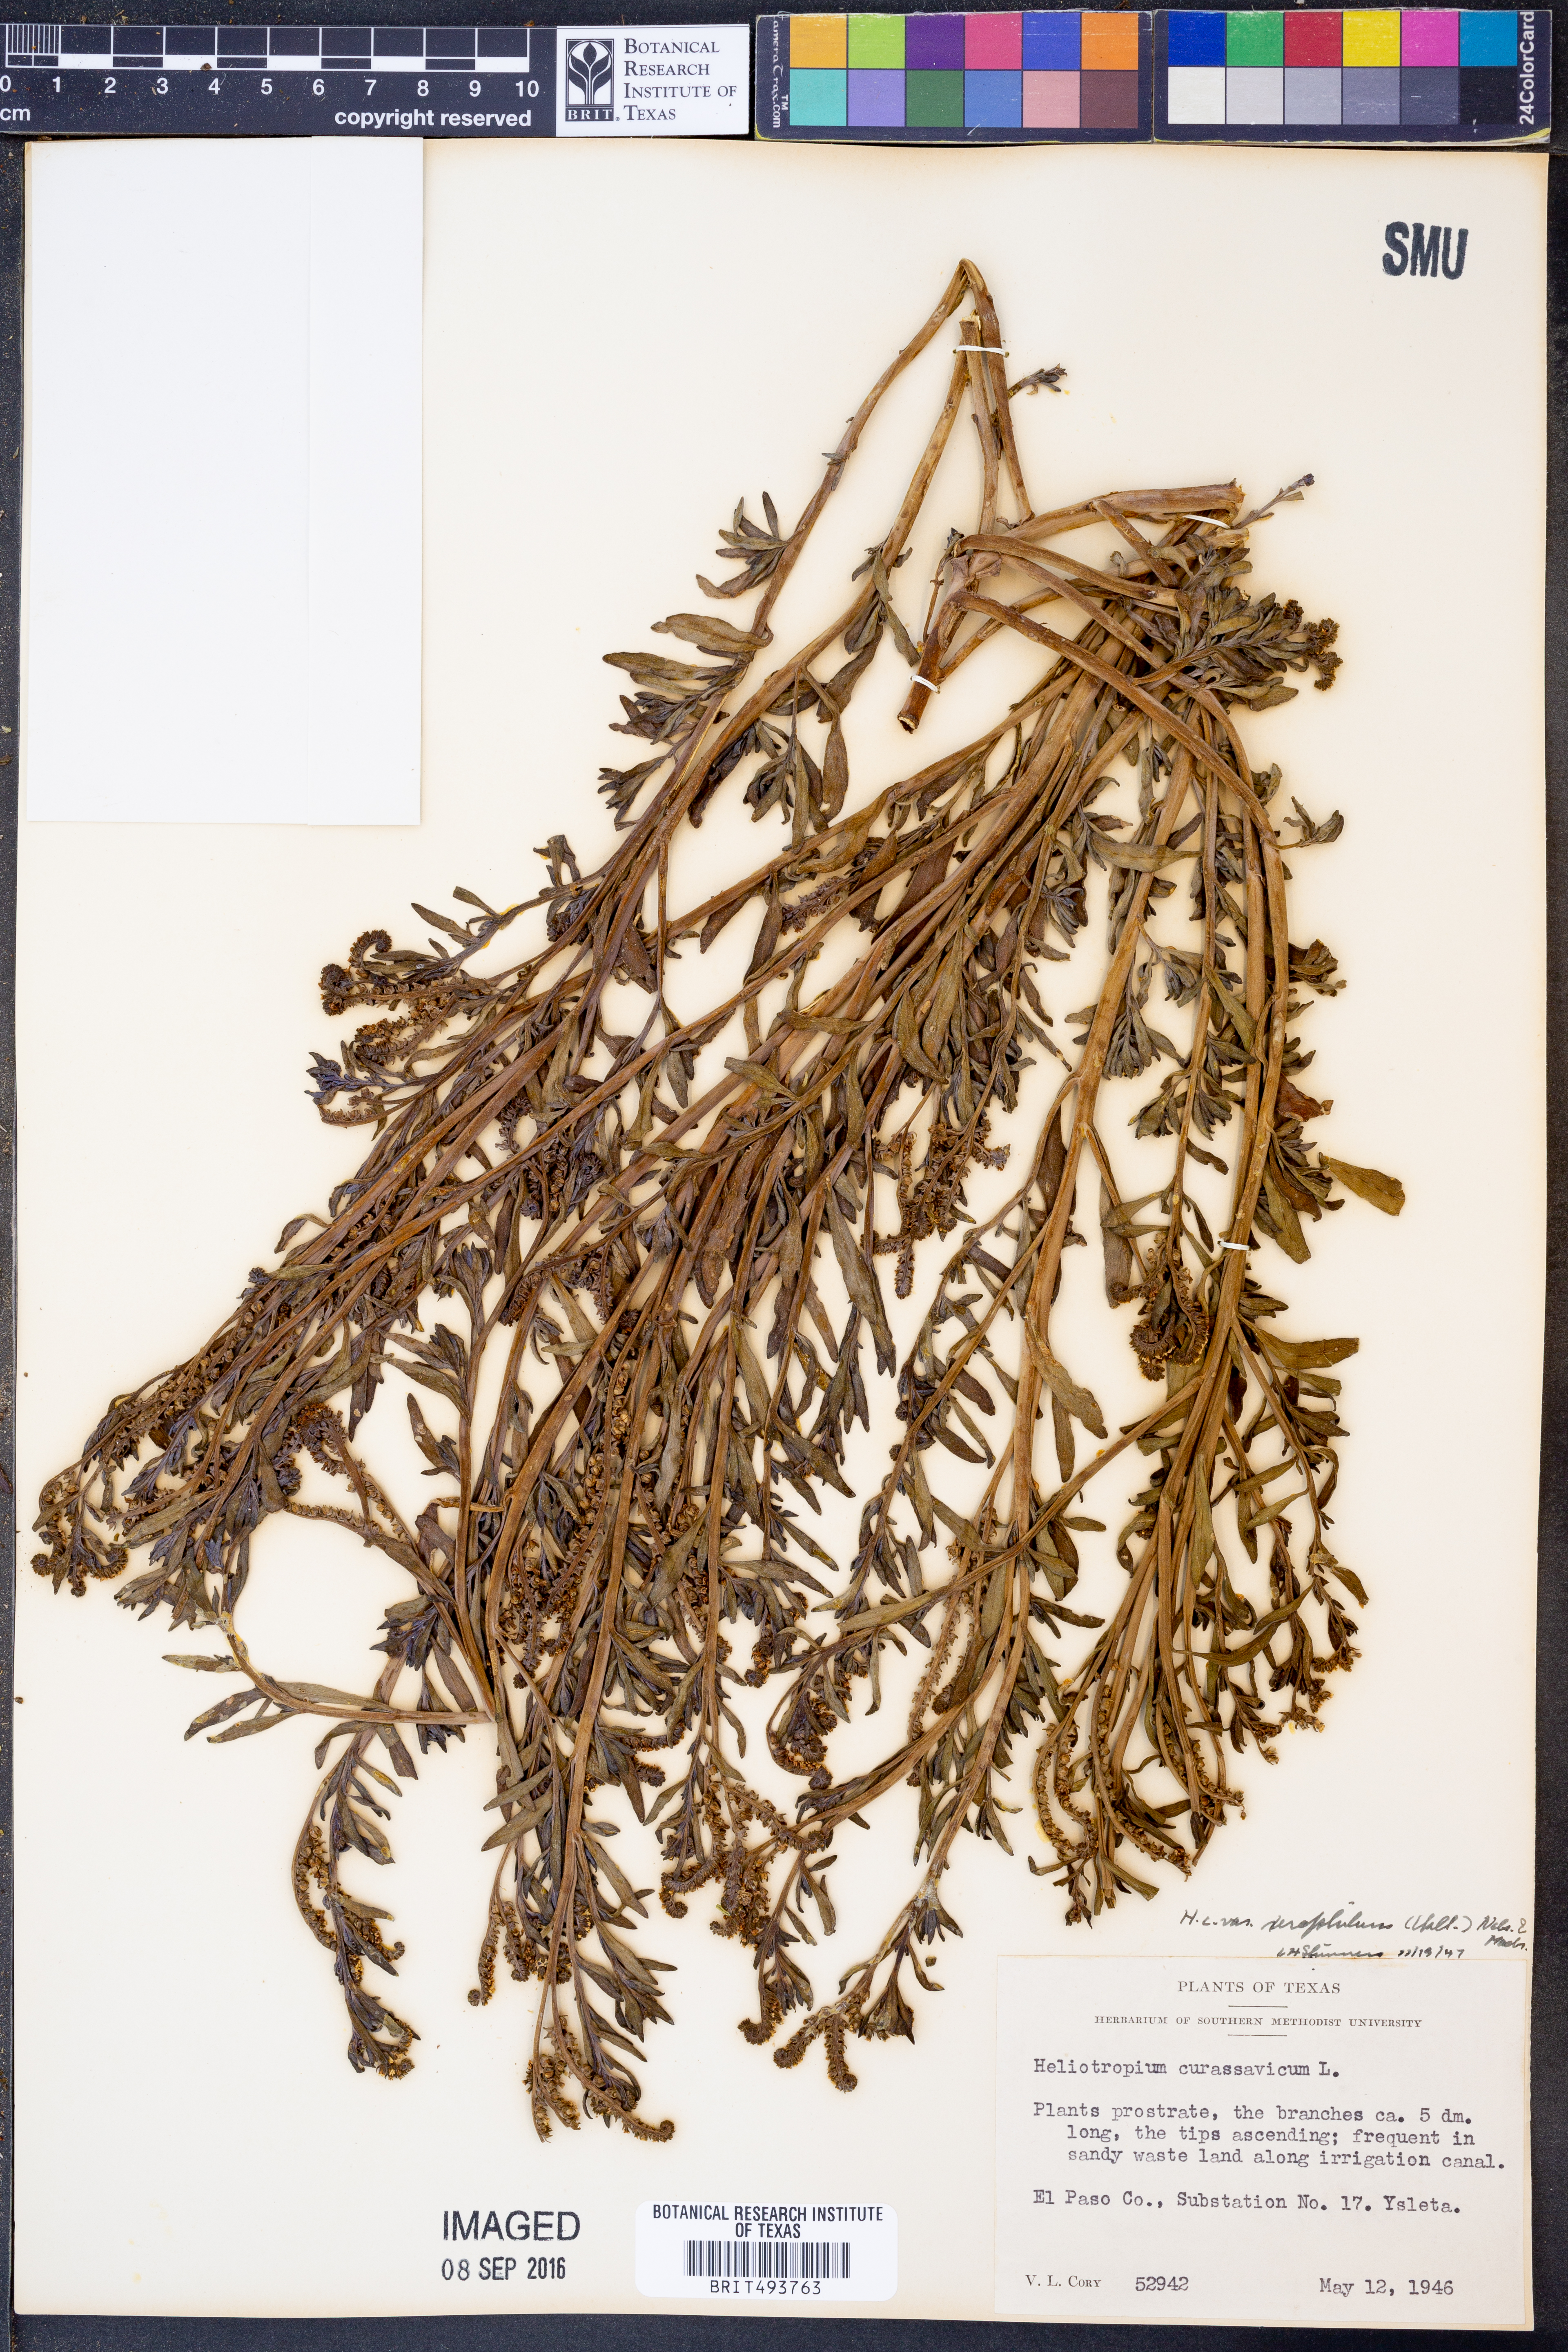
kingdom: Plantae
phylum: Tracheophyta
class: Magnoliopsida
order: Boraginales
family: Heliotropiaceae
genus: Heliotropium
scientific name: Heliotropium curassavicum
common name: Seaside heliotrope
